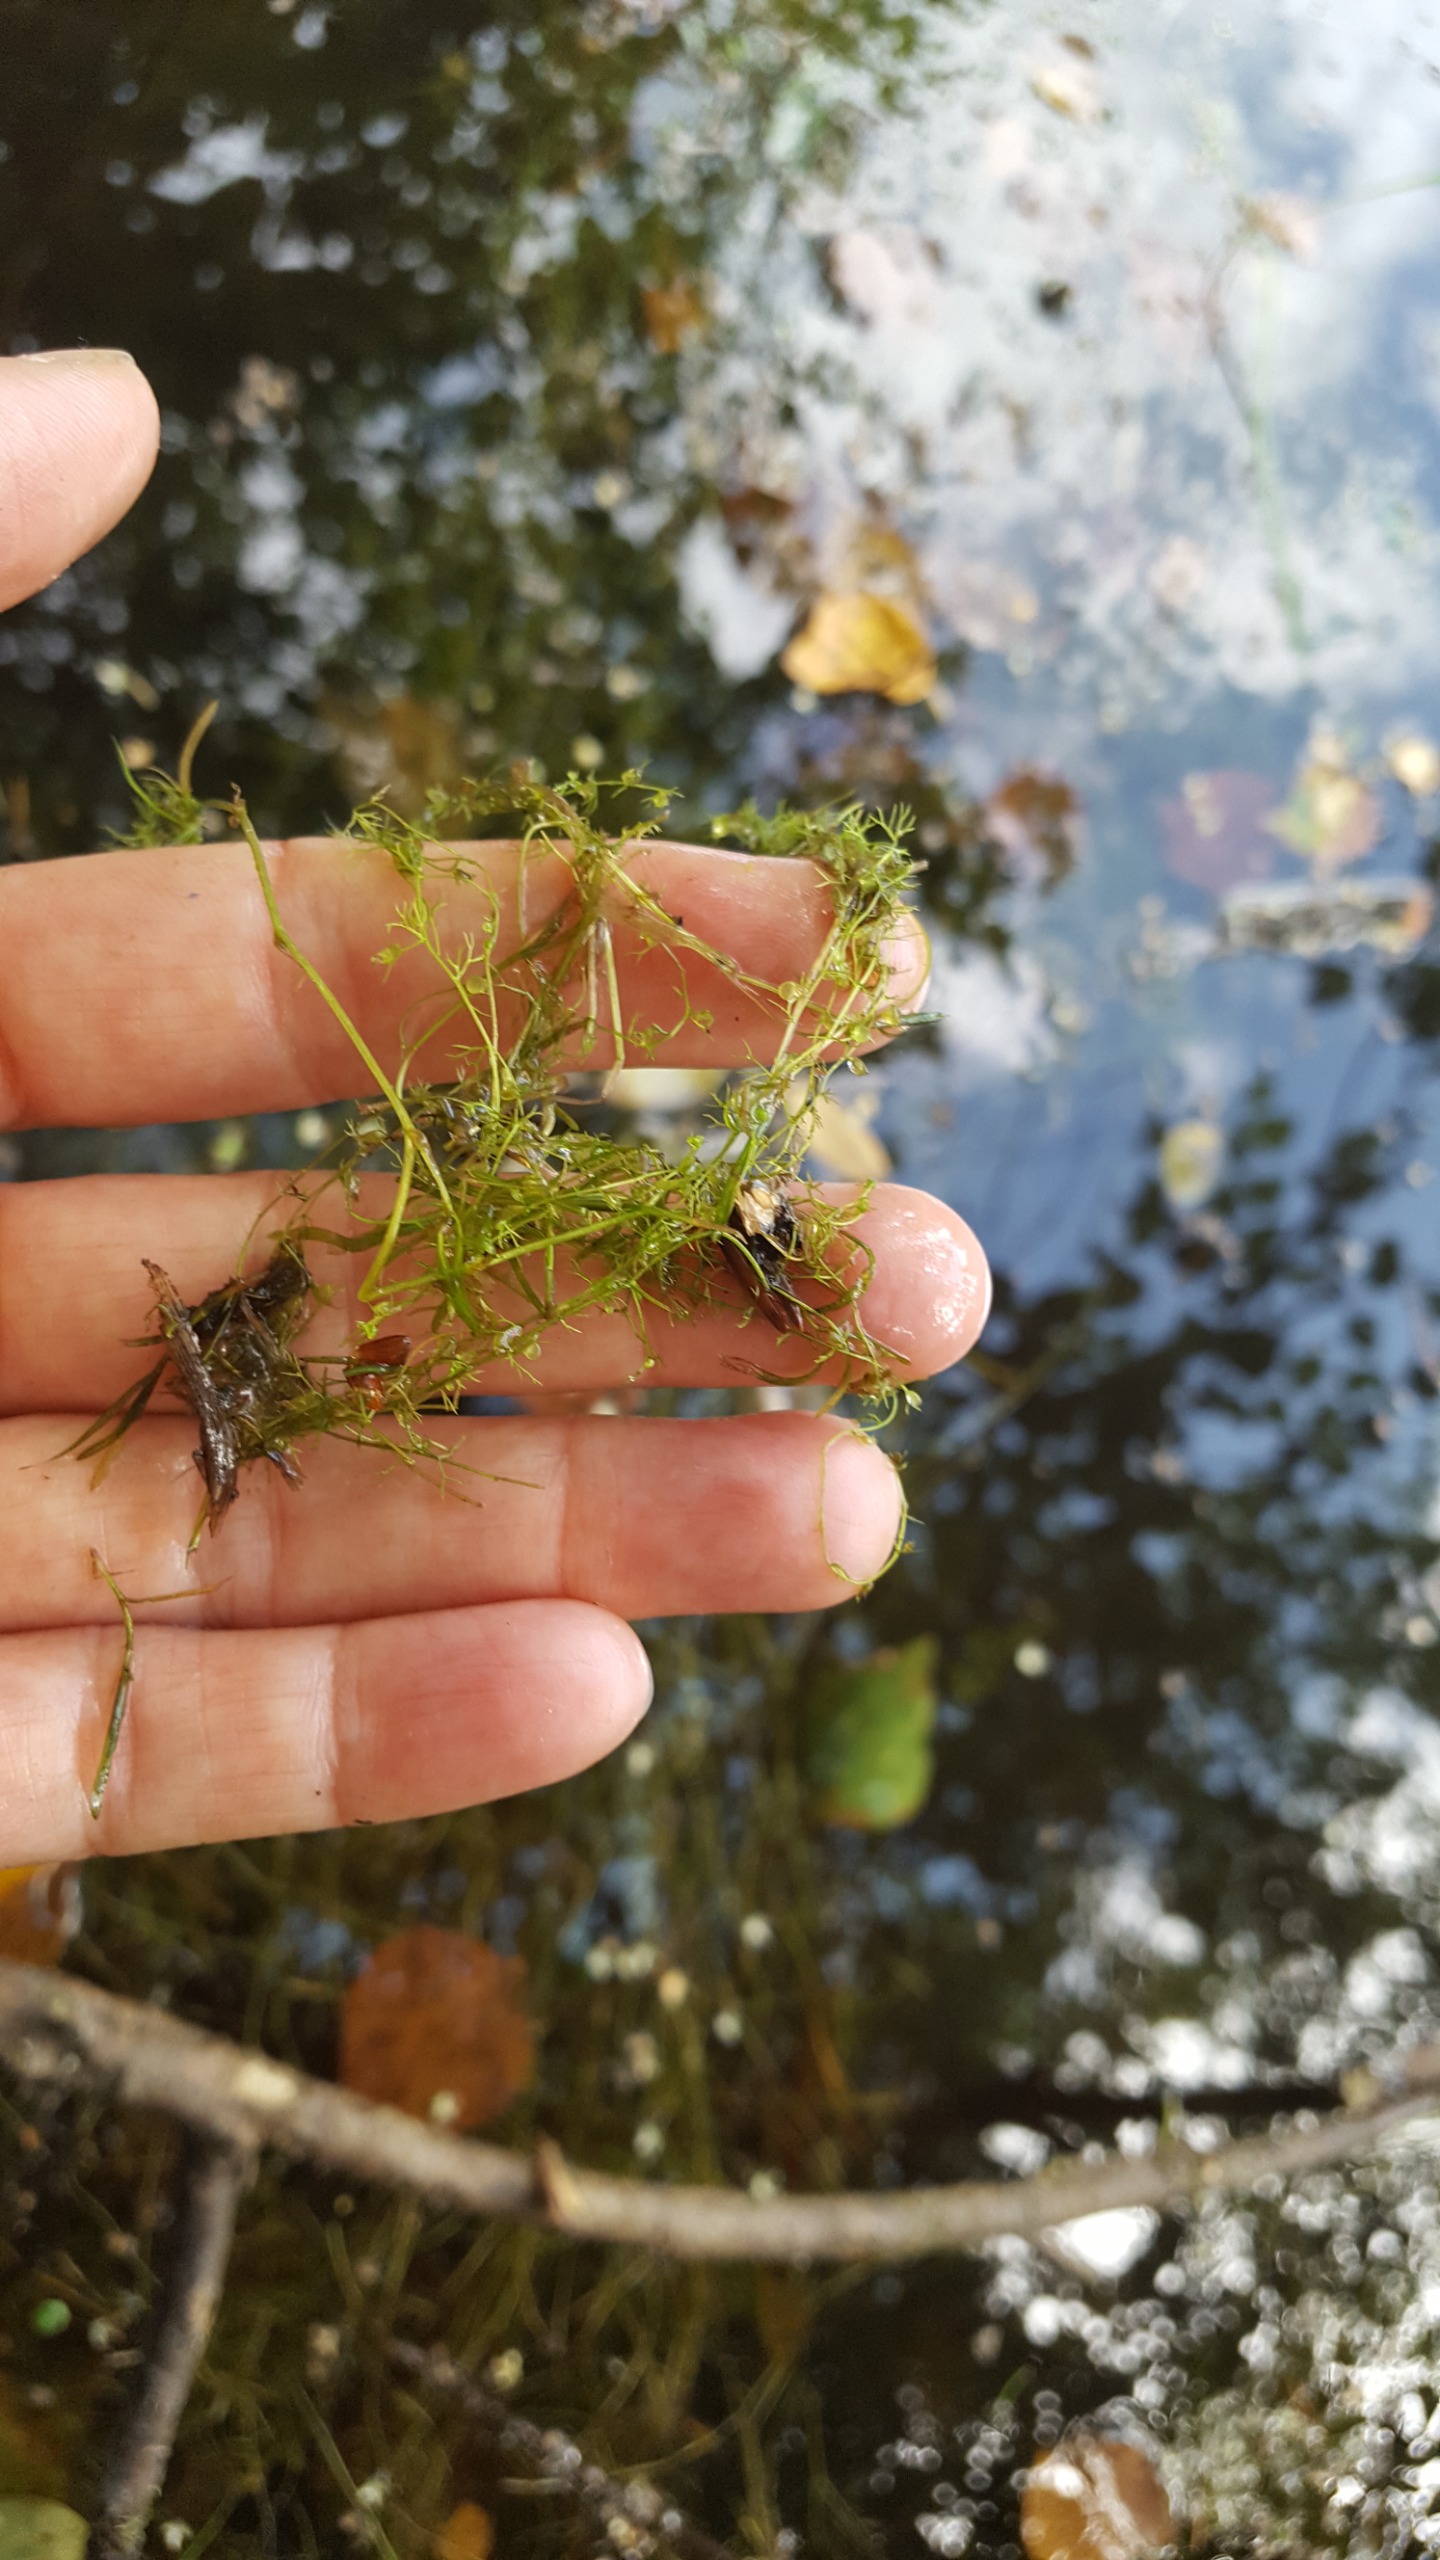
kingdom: Plantae
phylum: Tracheophyta
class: Magnoliopsida
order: Lamiales
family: Lentibulariaceae
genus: Utricularia
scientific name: Utricularia minor
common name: Liden blærerod
